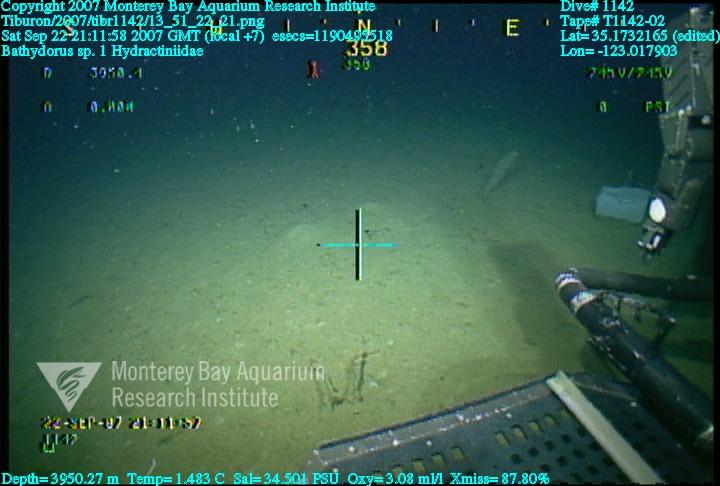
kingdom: Animalia
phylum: Porifera
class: Hexactinellida
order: Lyssacinosida
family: Rossellidae
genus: Bathydorus
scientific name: Bathydorus
